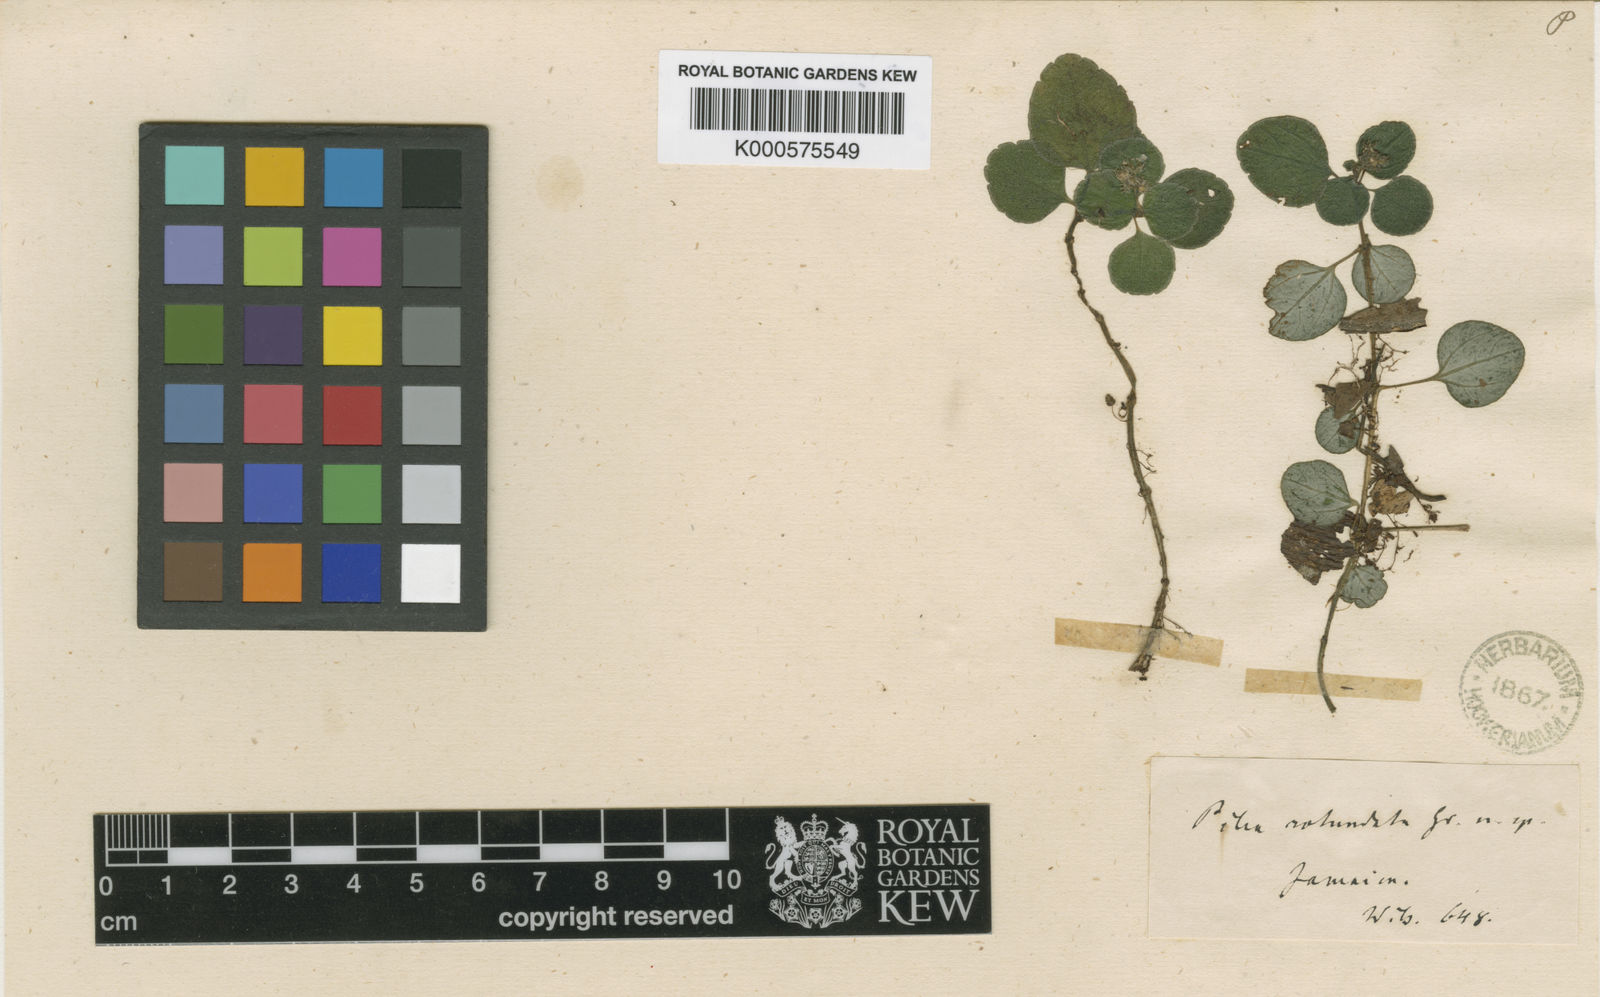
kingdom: Plantae
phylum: Tracheophyta
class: Magnoliopsida
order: Rosales
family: Urticaceae
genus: Pilea
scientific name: Pilea rotundata
